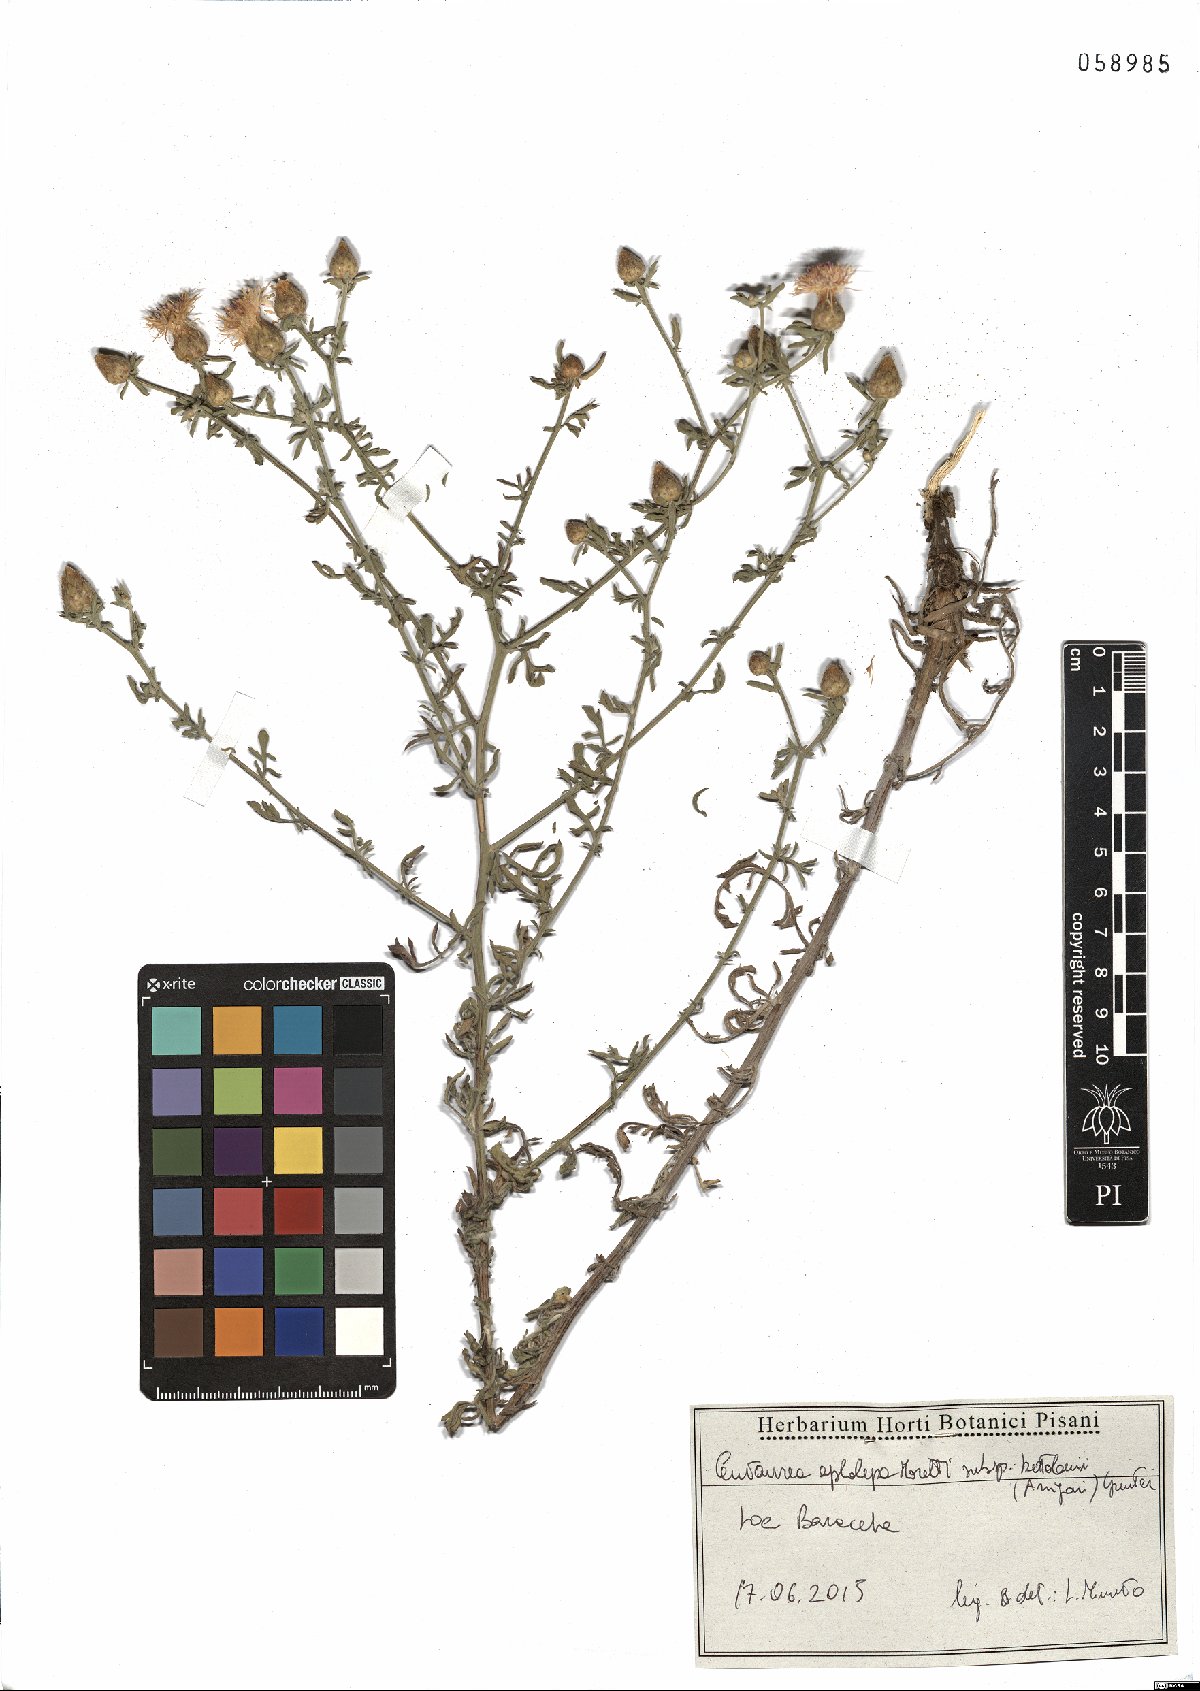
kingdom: Plantae
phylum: Tracheophyta
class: Magnoliopsida
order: Asterales
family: Asteraceae
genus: Centaurea
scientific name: Centaurea aplolepa
